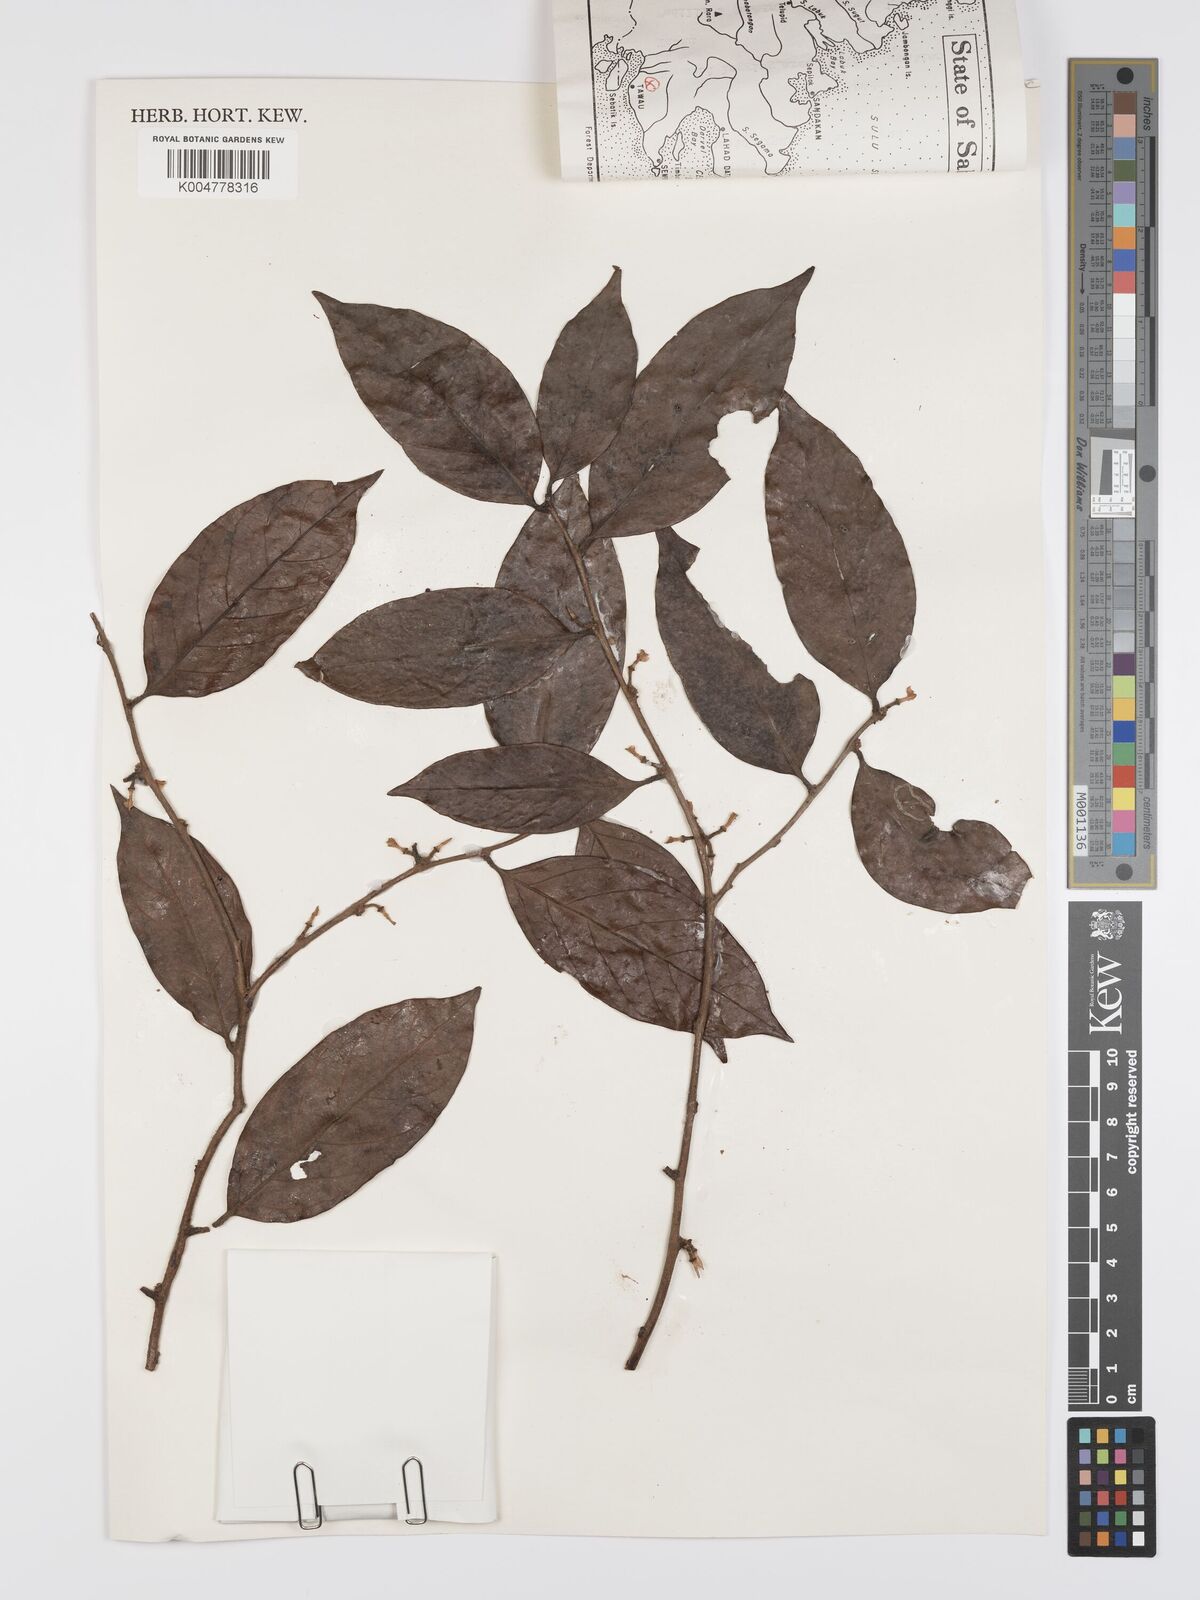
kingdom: Plantae
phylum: Tracheophyta
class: Magnoliopsida
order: Malpighiales
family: Peraceae
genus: Chaetocarpus
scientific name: Chaetocarpus castanocarpus
